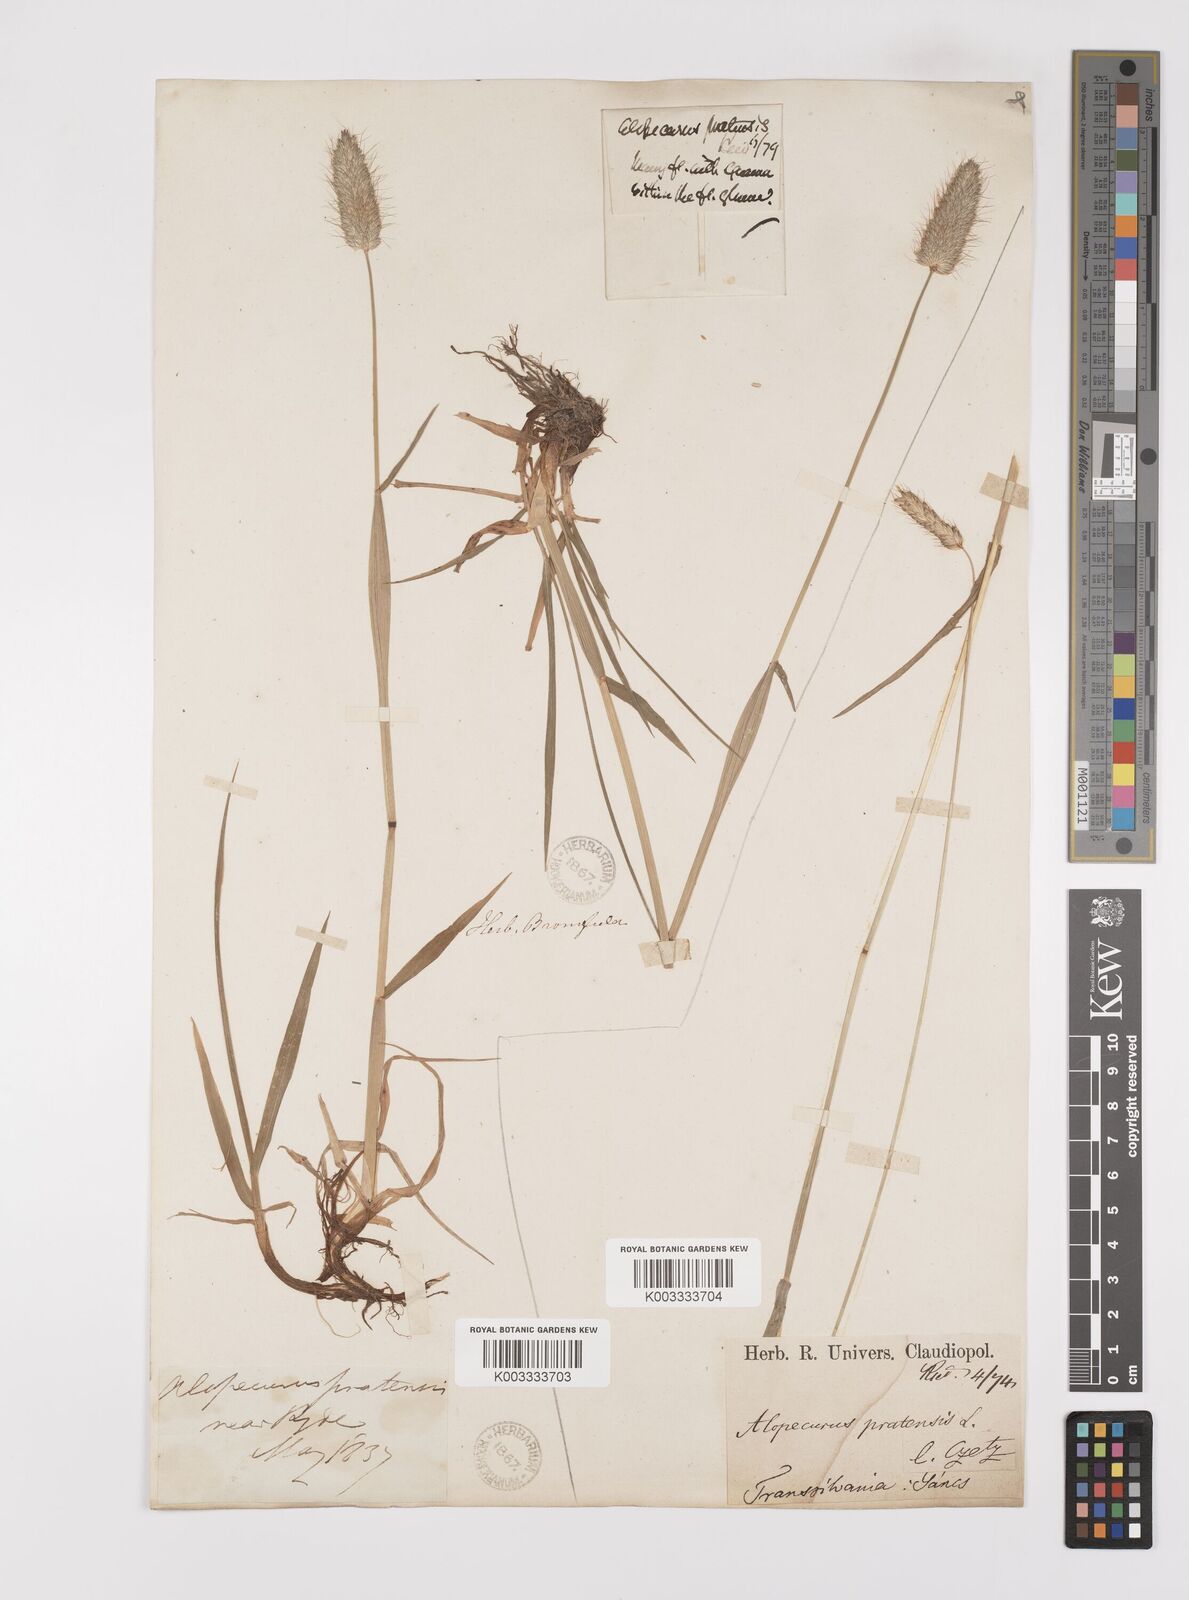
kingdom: Plantae
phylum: Tracheophyta
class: Liliopsida
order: Poales
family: Poaceae
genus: Alopecurus
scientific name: Alopecurus pratensis
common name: Meadow foxtail
